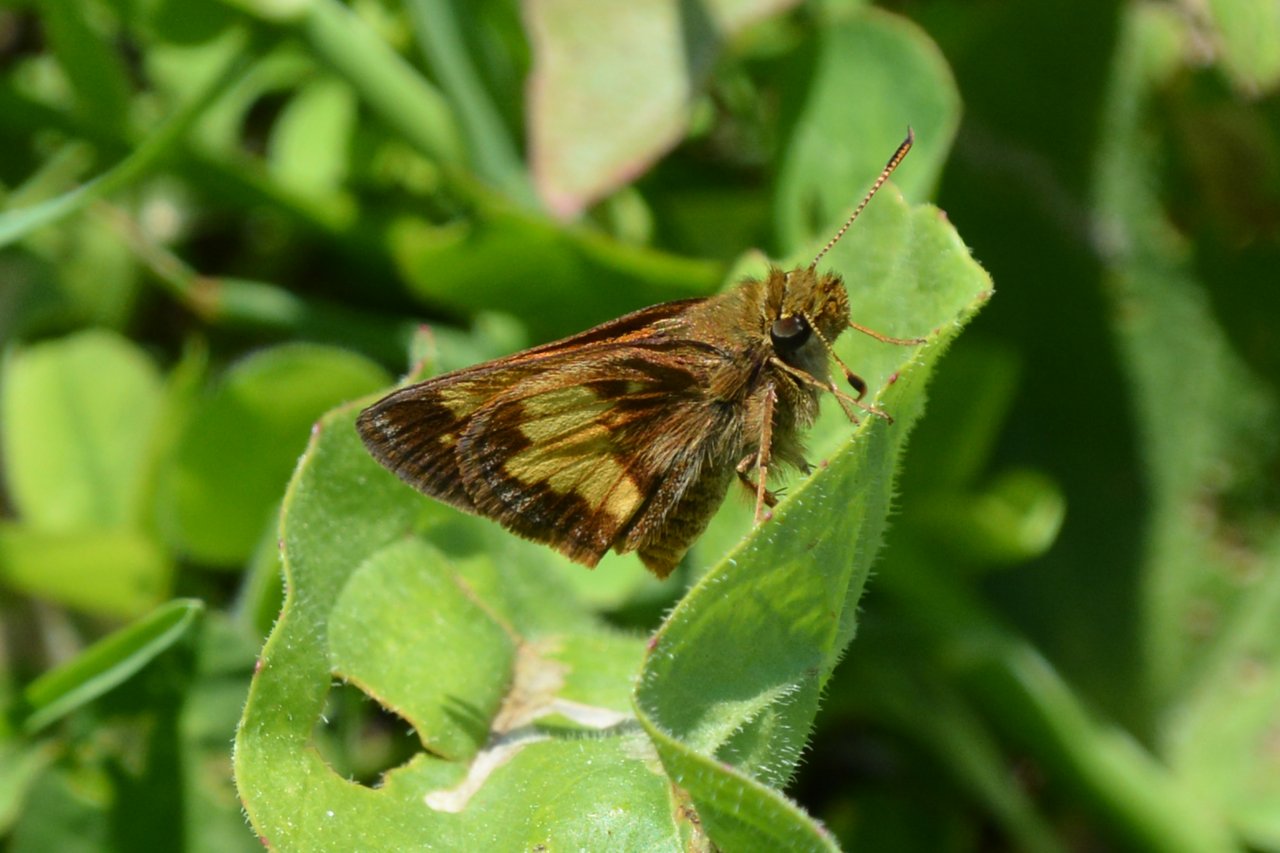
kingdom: Animalia
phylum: Arthropoda
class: Insecta
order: Lepidoptera
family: Hesperiidae
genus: Lon
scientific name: Lon hobomok
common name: Hobomok Skipper
